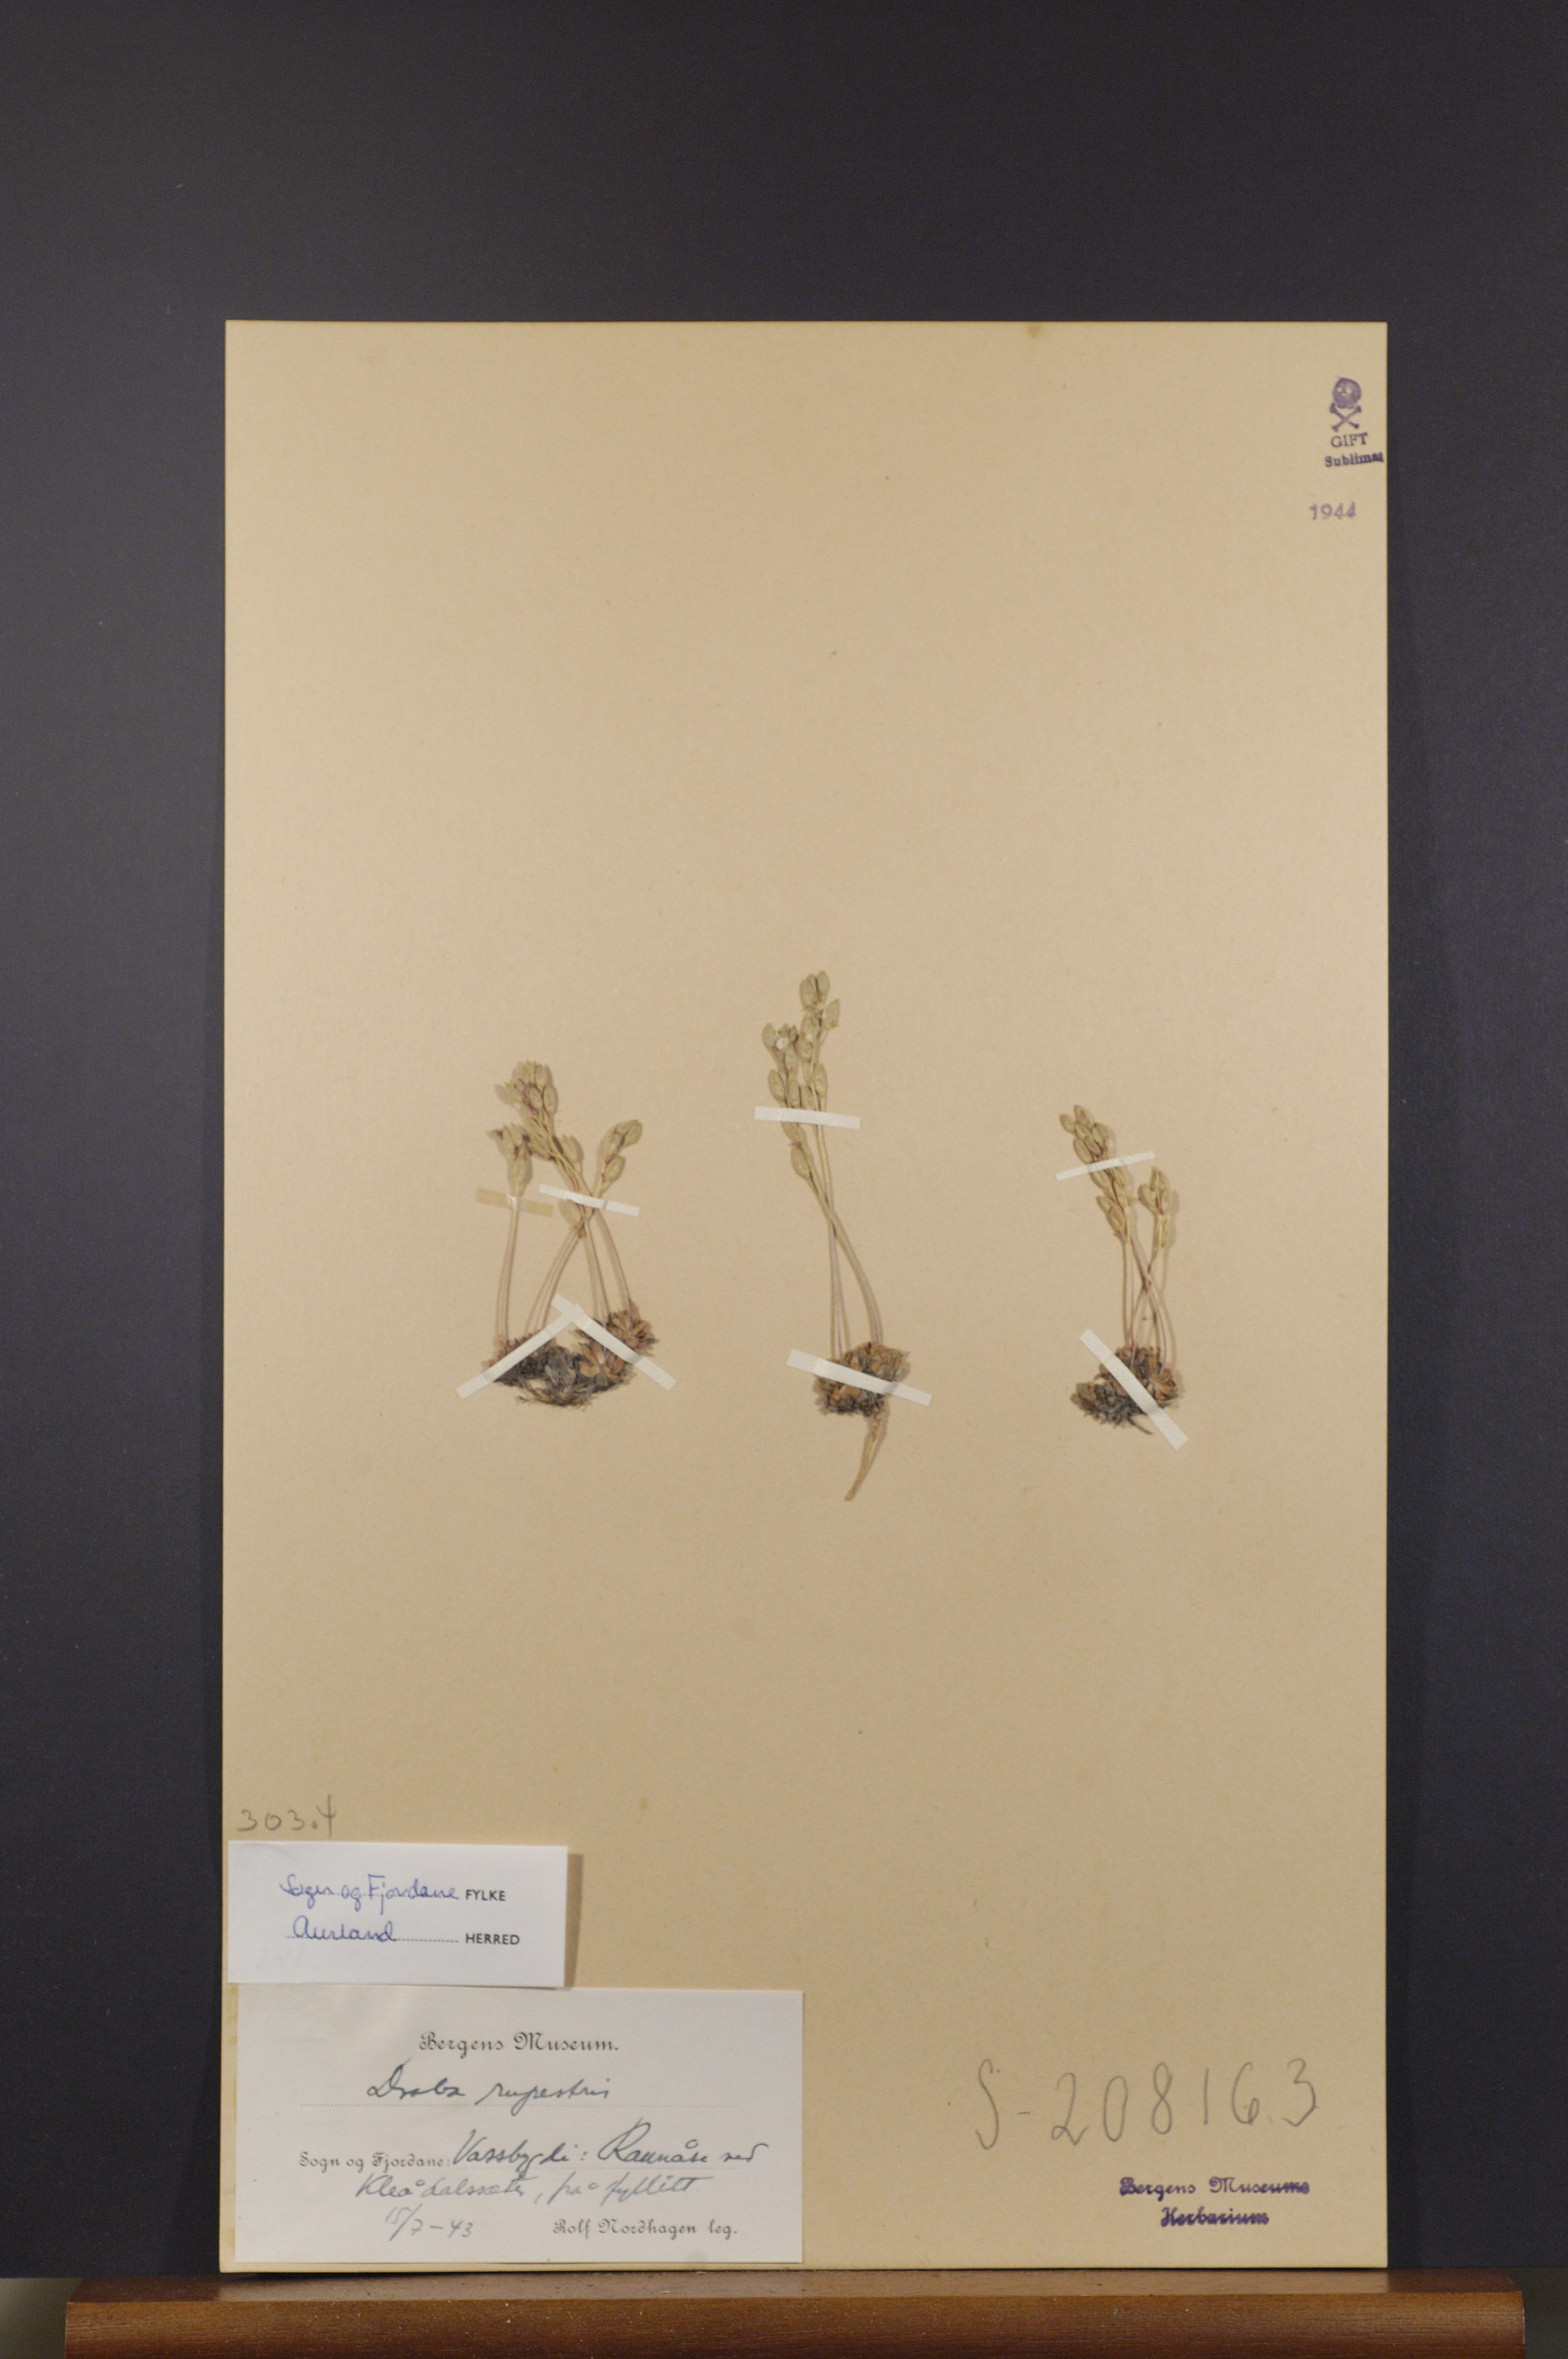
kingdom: Plantae
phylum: Tracheophyta
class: Magnoliopsida
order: Brassicales
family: Brassicaceae
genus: Draba
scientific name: Draba norvegica
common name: Rock whitlowgrass
